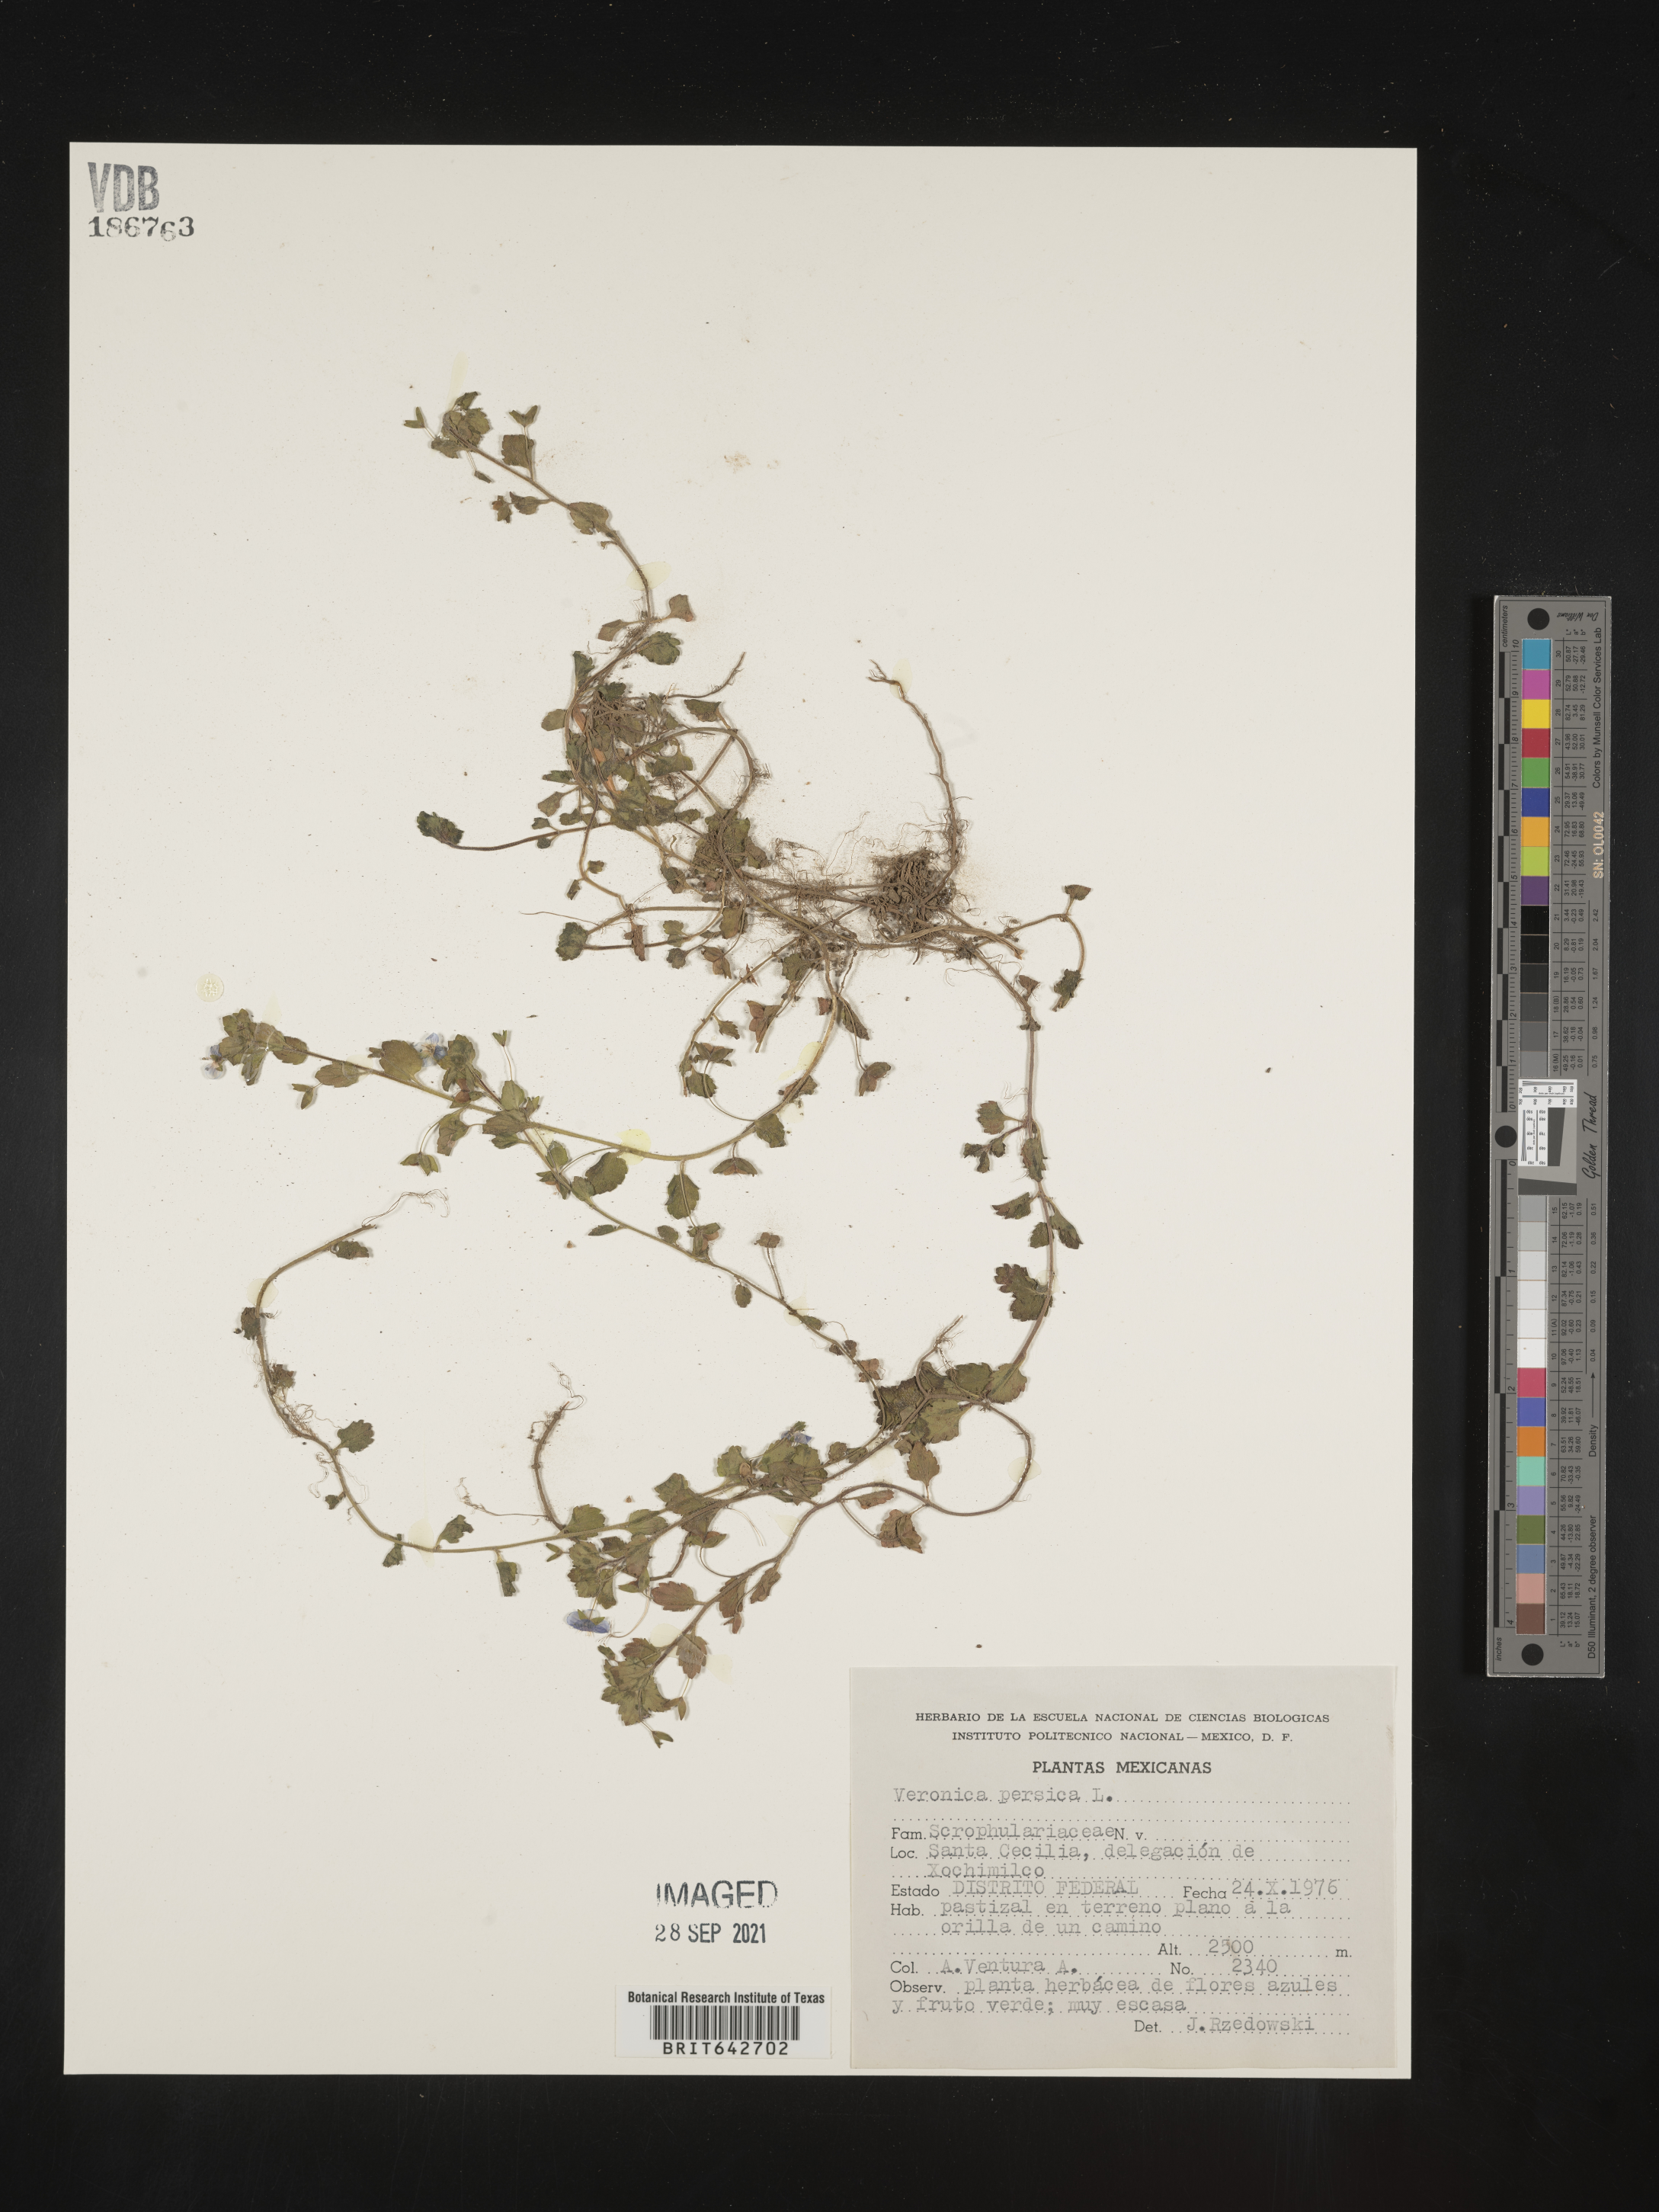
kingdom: Plantae
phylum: Tracheophyta
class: Magnoliopsida
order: Lamiales
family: Plantaginaceae
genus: Veronica
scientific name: Veronica
